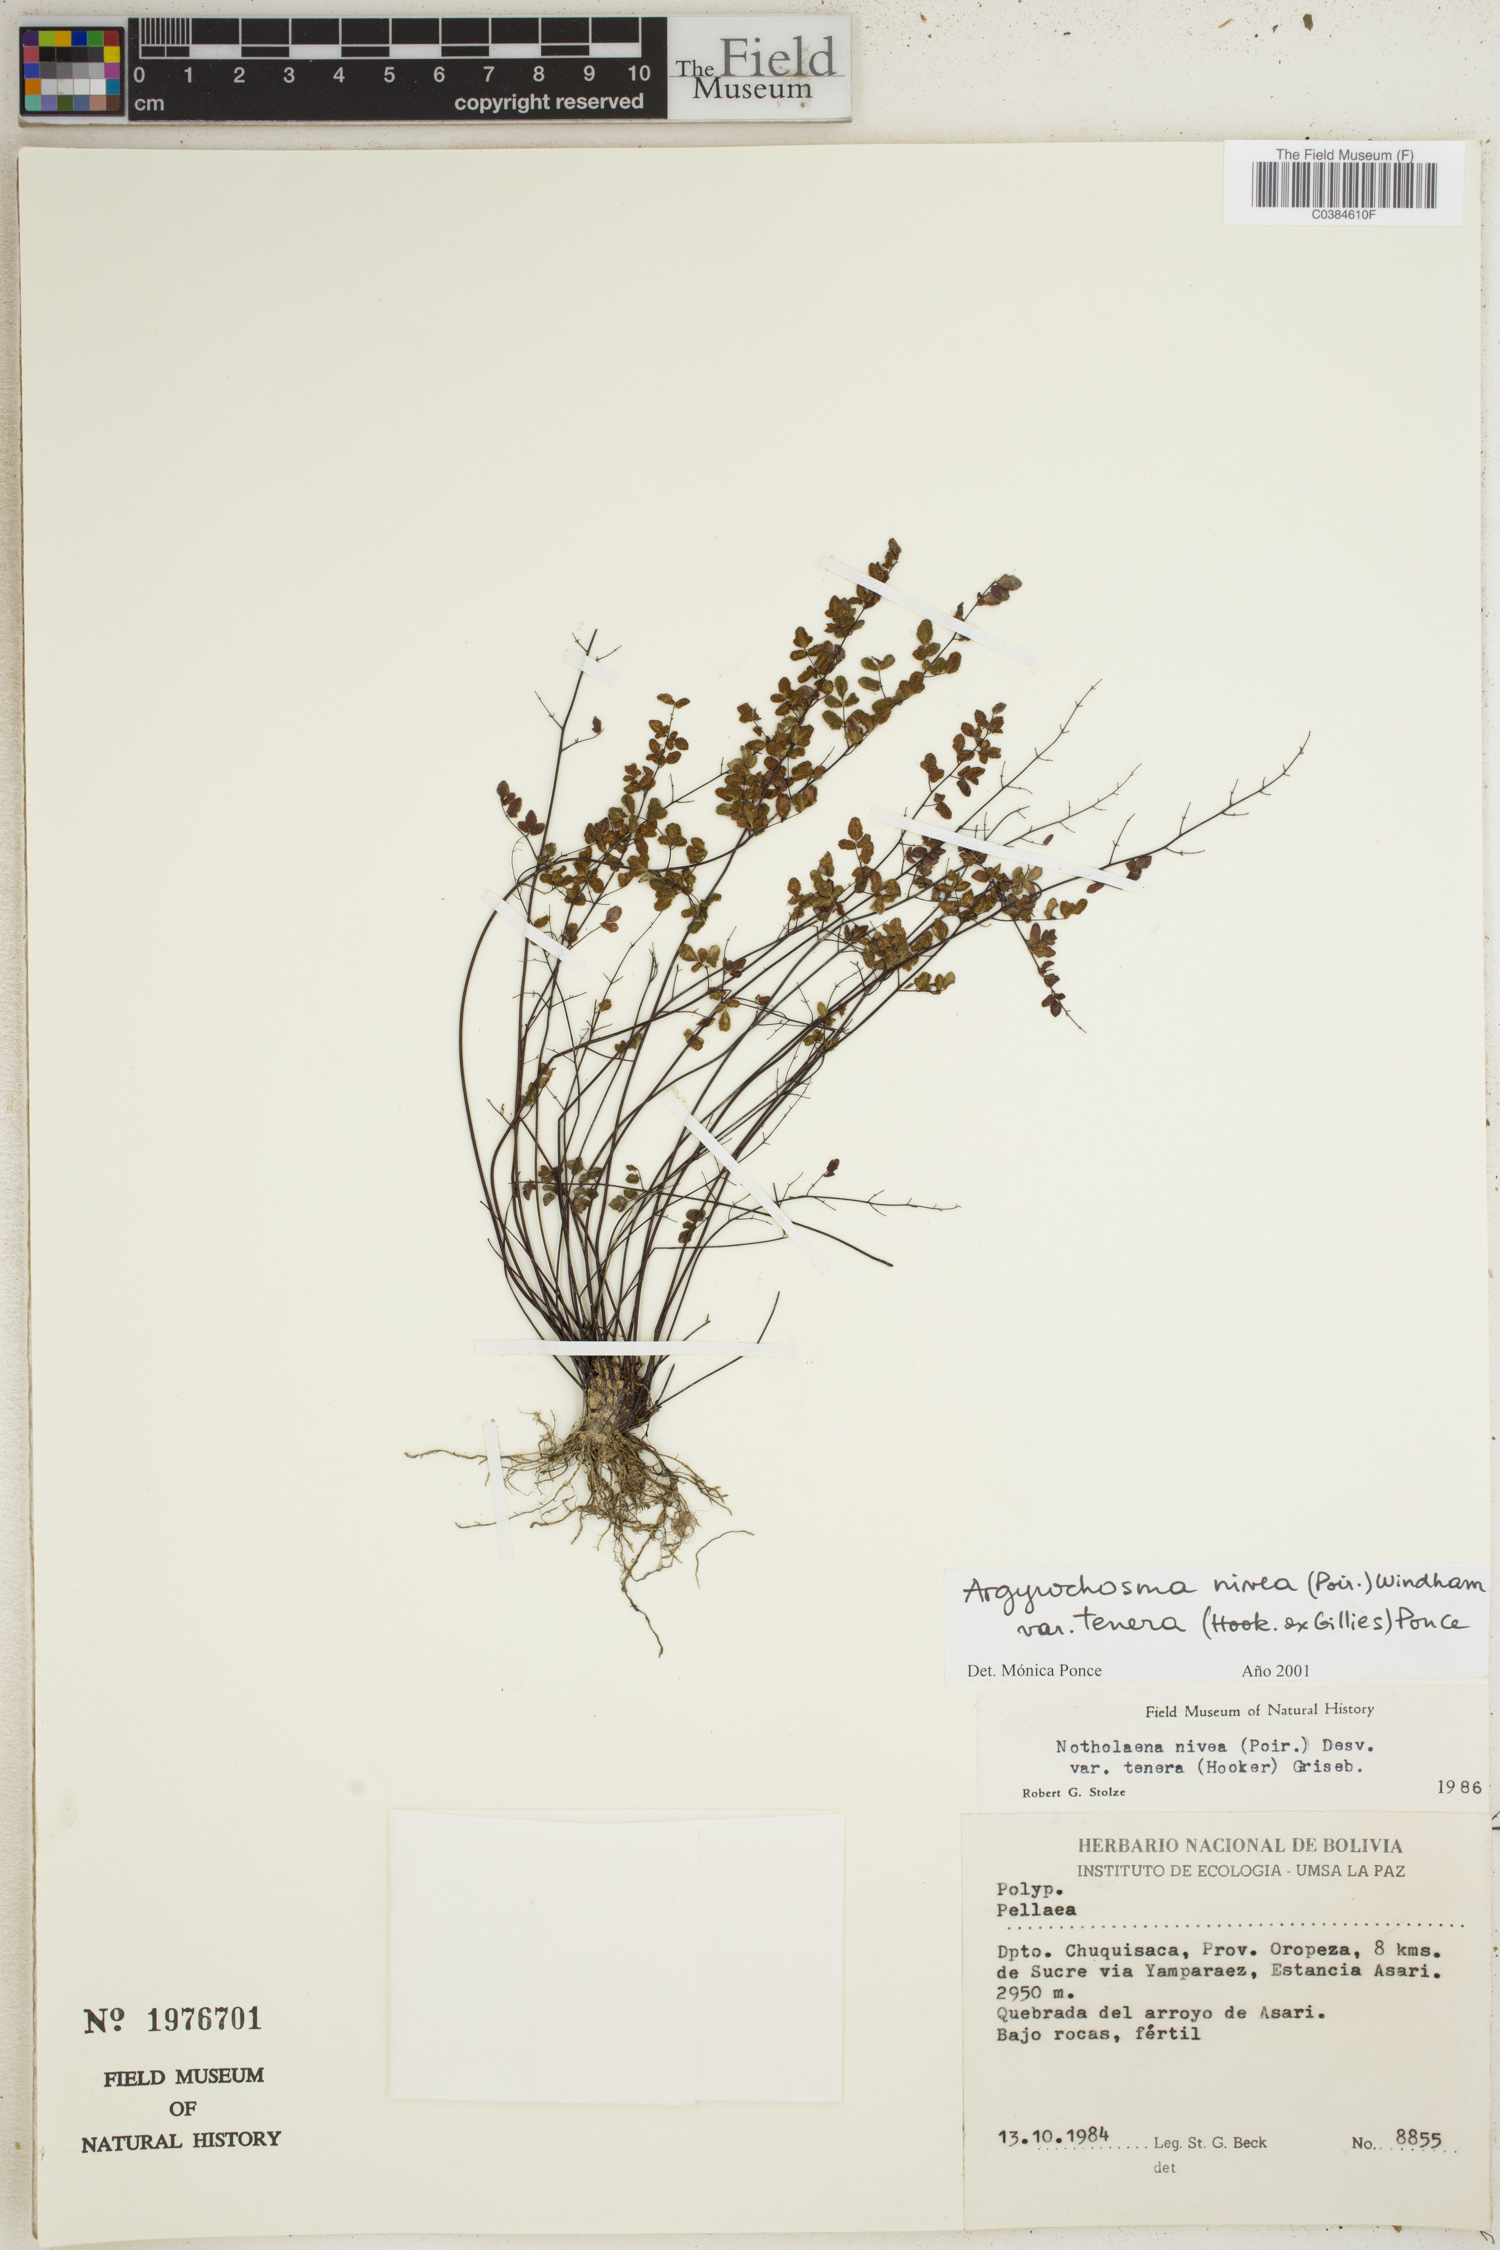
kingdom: Plantae
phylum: Tracheophyta
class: Polypodiopsida
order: Polypodiales
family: Pteridaceae
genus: Argyrochosma
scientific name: Argyrochosma nivea
